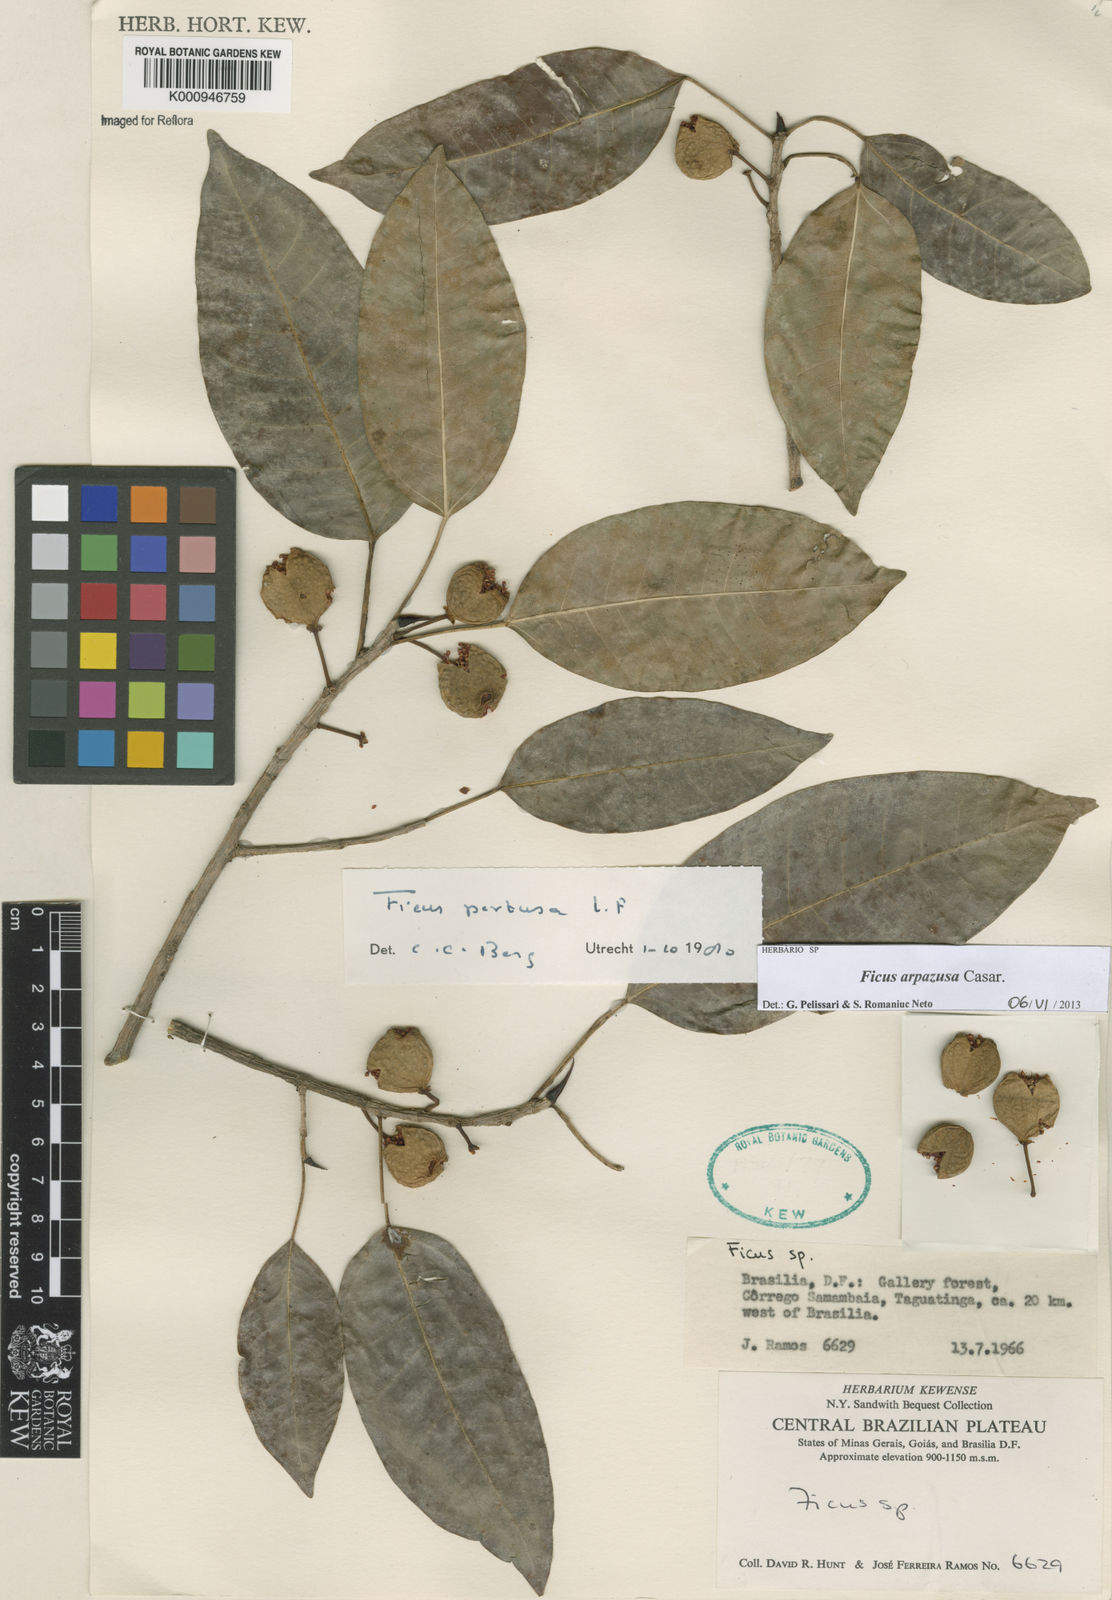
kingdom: Plantae
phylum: Tracheophyta
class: Magnoliopsida
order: Rosales
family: Moraceae
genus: Ficus
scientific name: Ficus arpazusa
